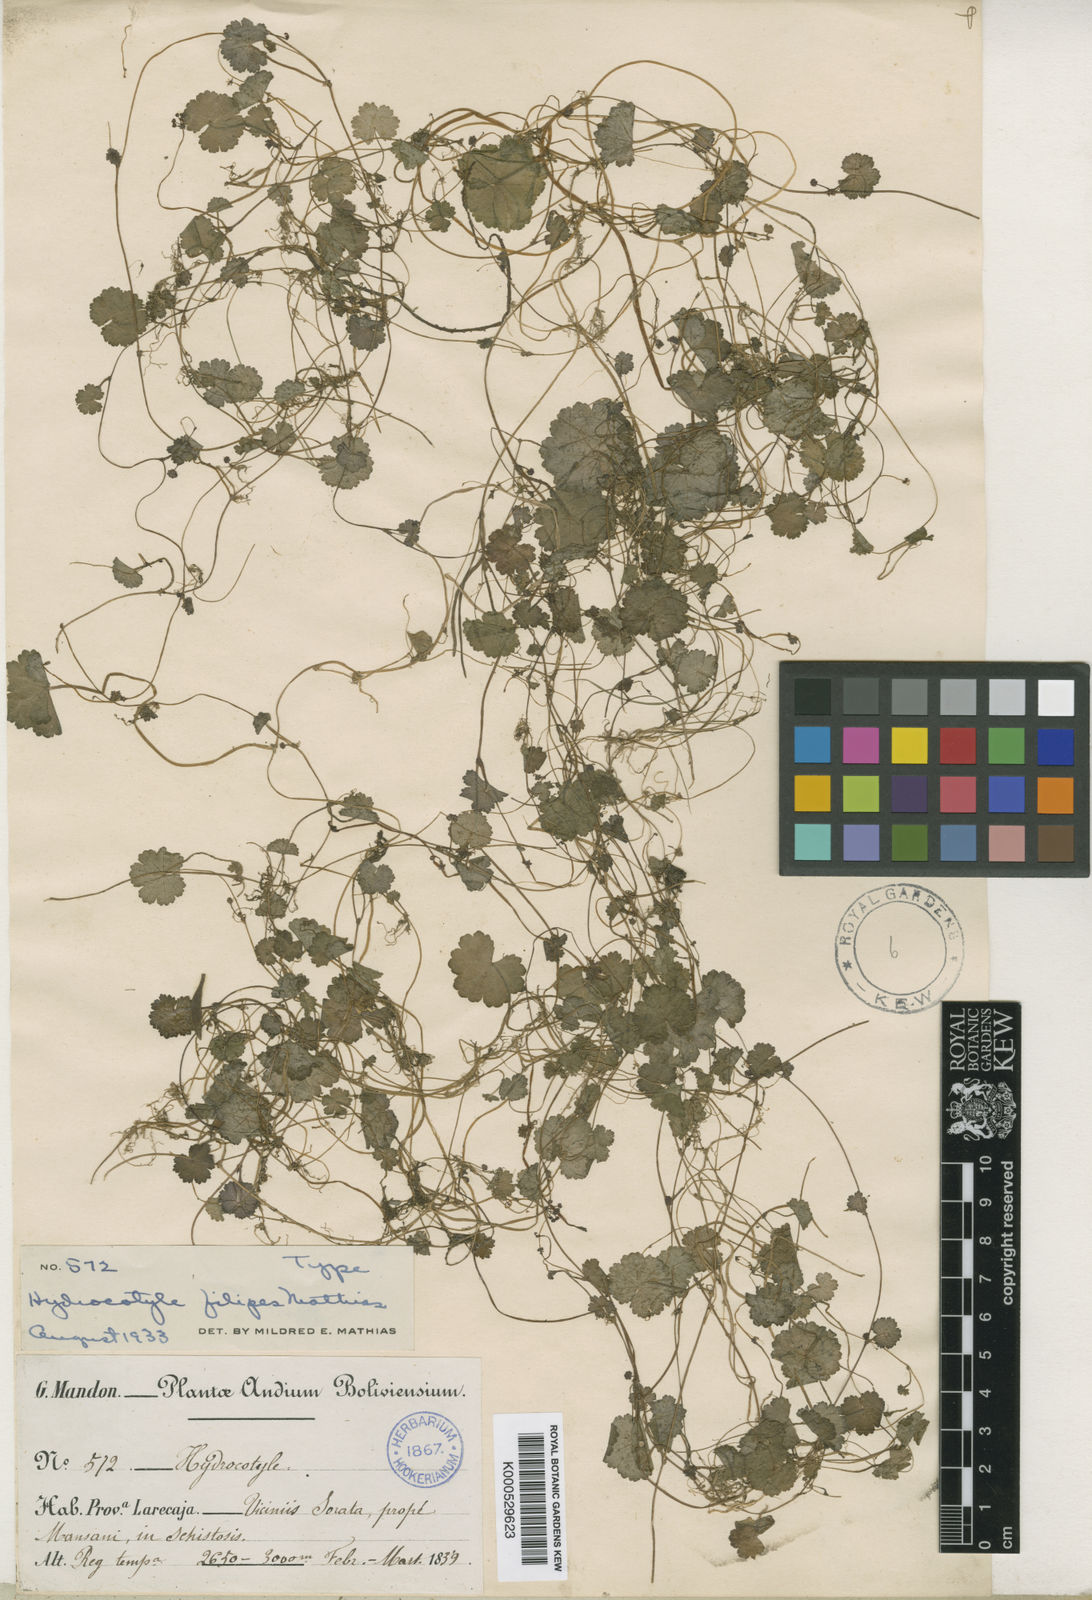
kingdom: Plantae
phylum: Tracheophyta
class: Magnoliopsida
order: Apiales
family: Araliaceae
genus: Hydrocotyle
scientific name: Hydrocotyle filipes
